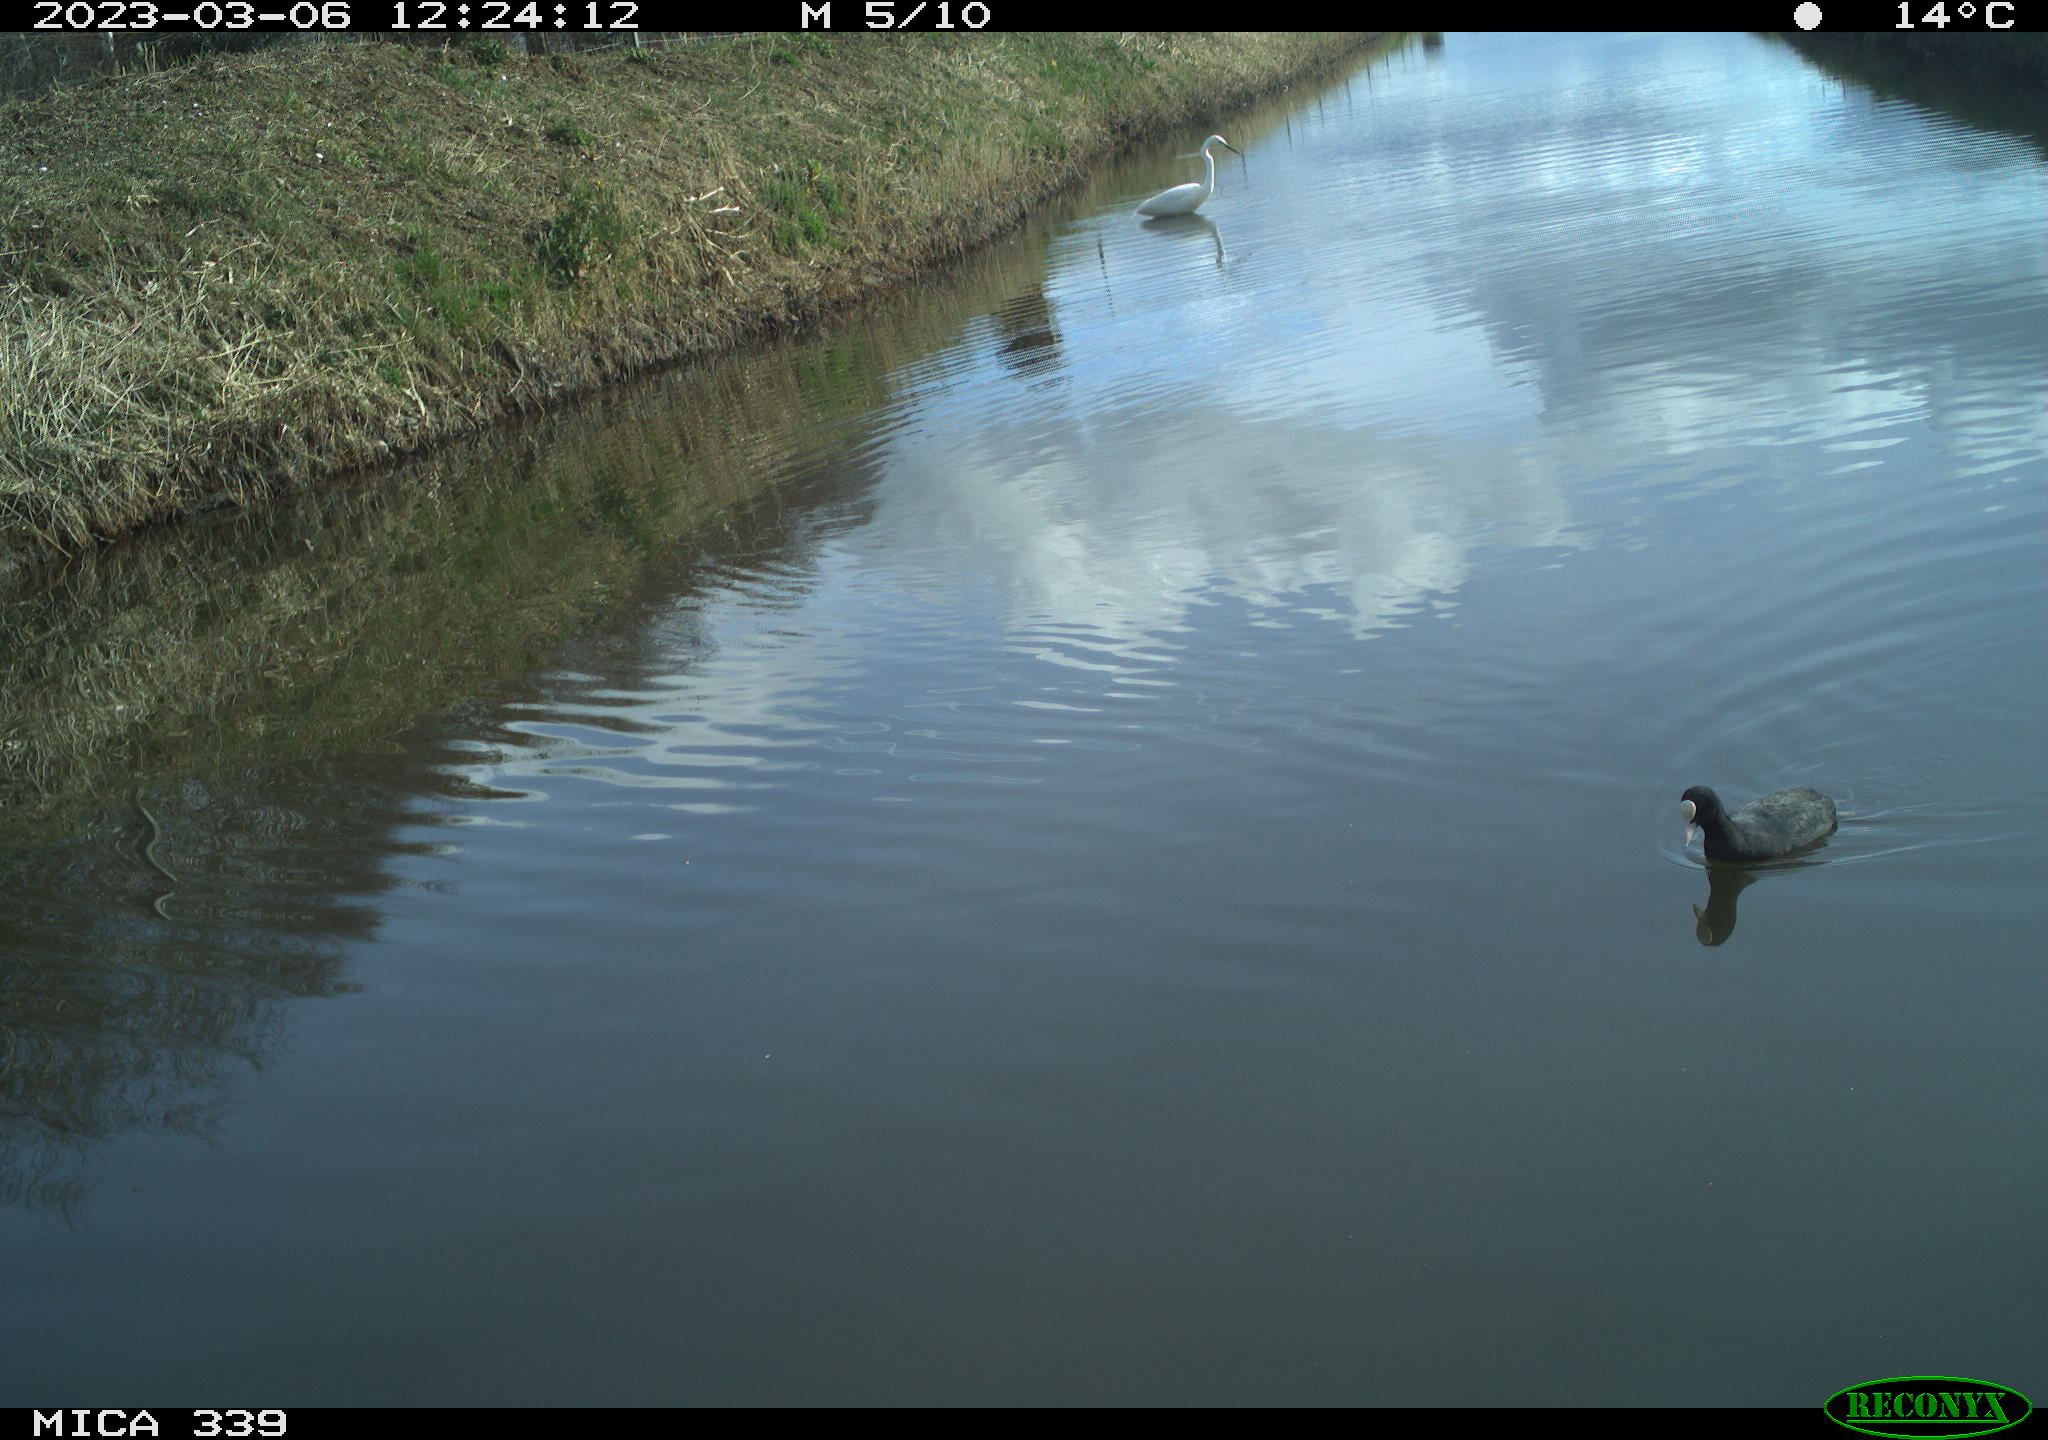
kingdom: Animalia
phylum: Chordata
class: Aves
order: Pelecaniformes
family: Ardeidae
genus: Ardea
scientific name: Ardea alba
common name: Great egret
